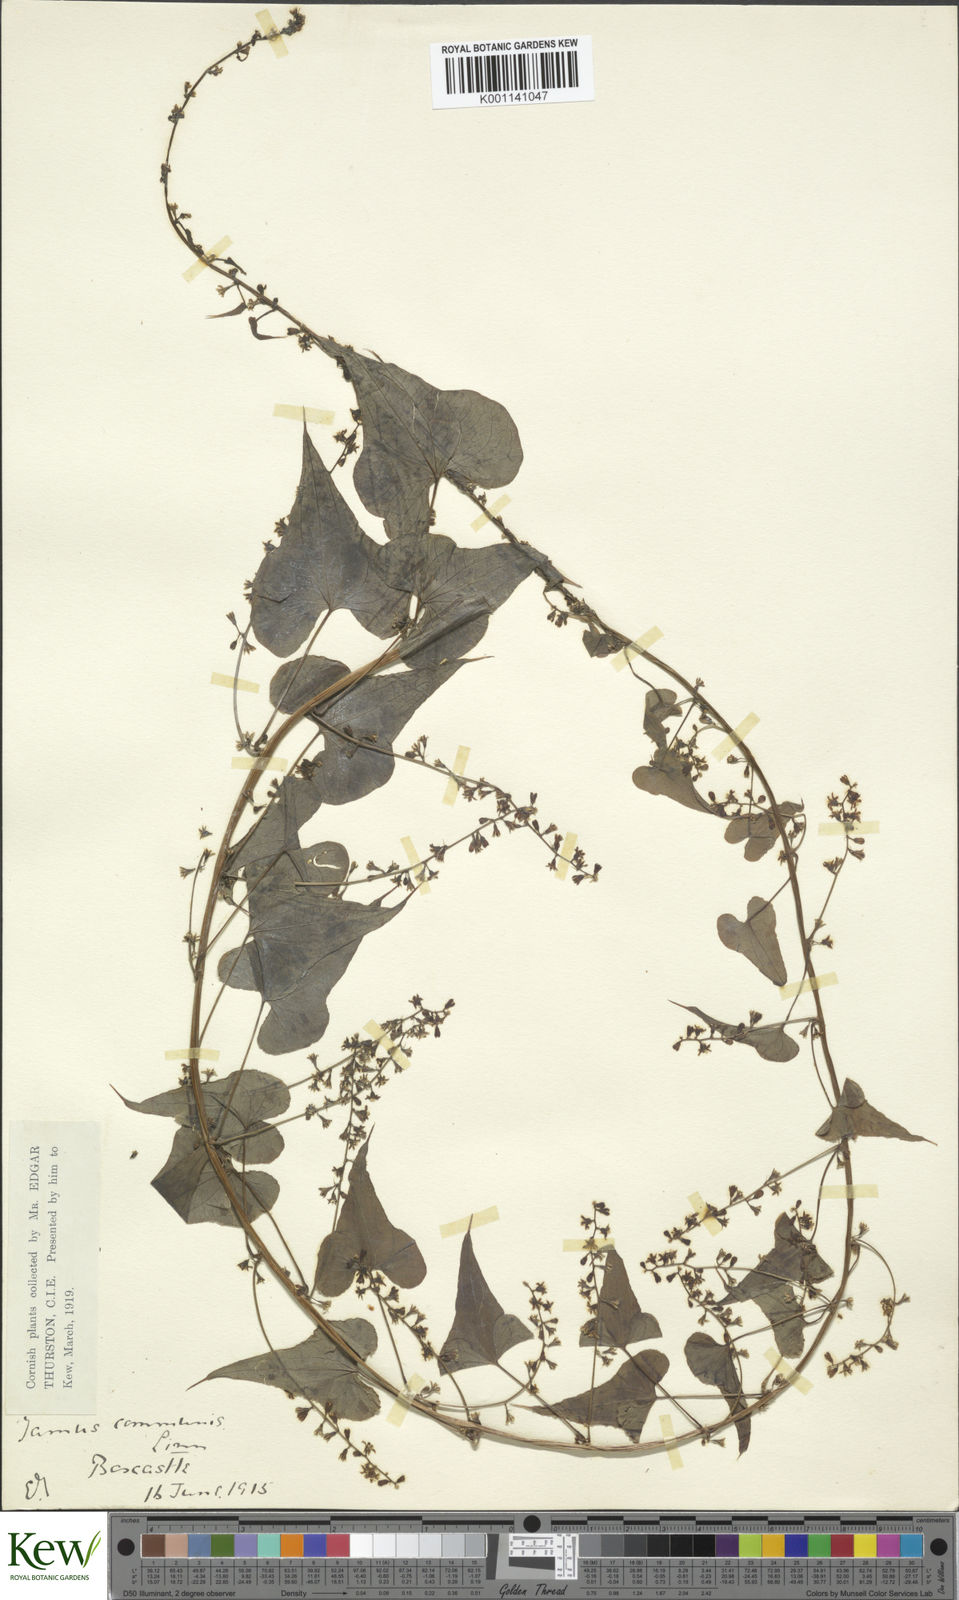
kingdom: Plantae
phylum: Tracheophyta
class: Liliopsida
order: Dioscoreales
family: Dioscoreaceae
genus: Dioscorea
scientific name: Dioscorea communis
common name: Black-bindweed
